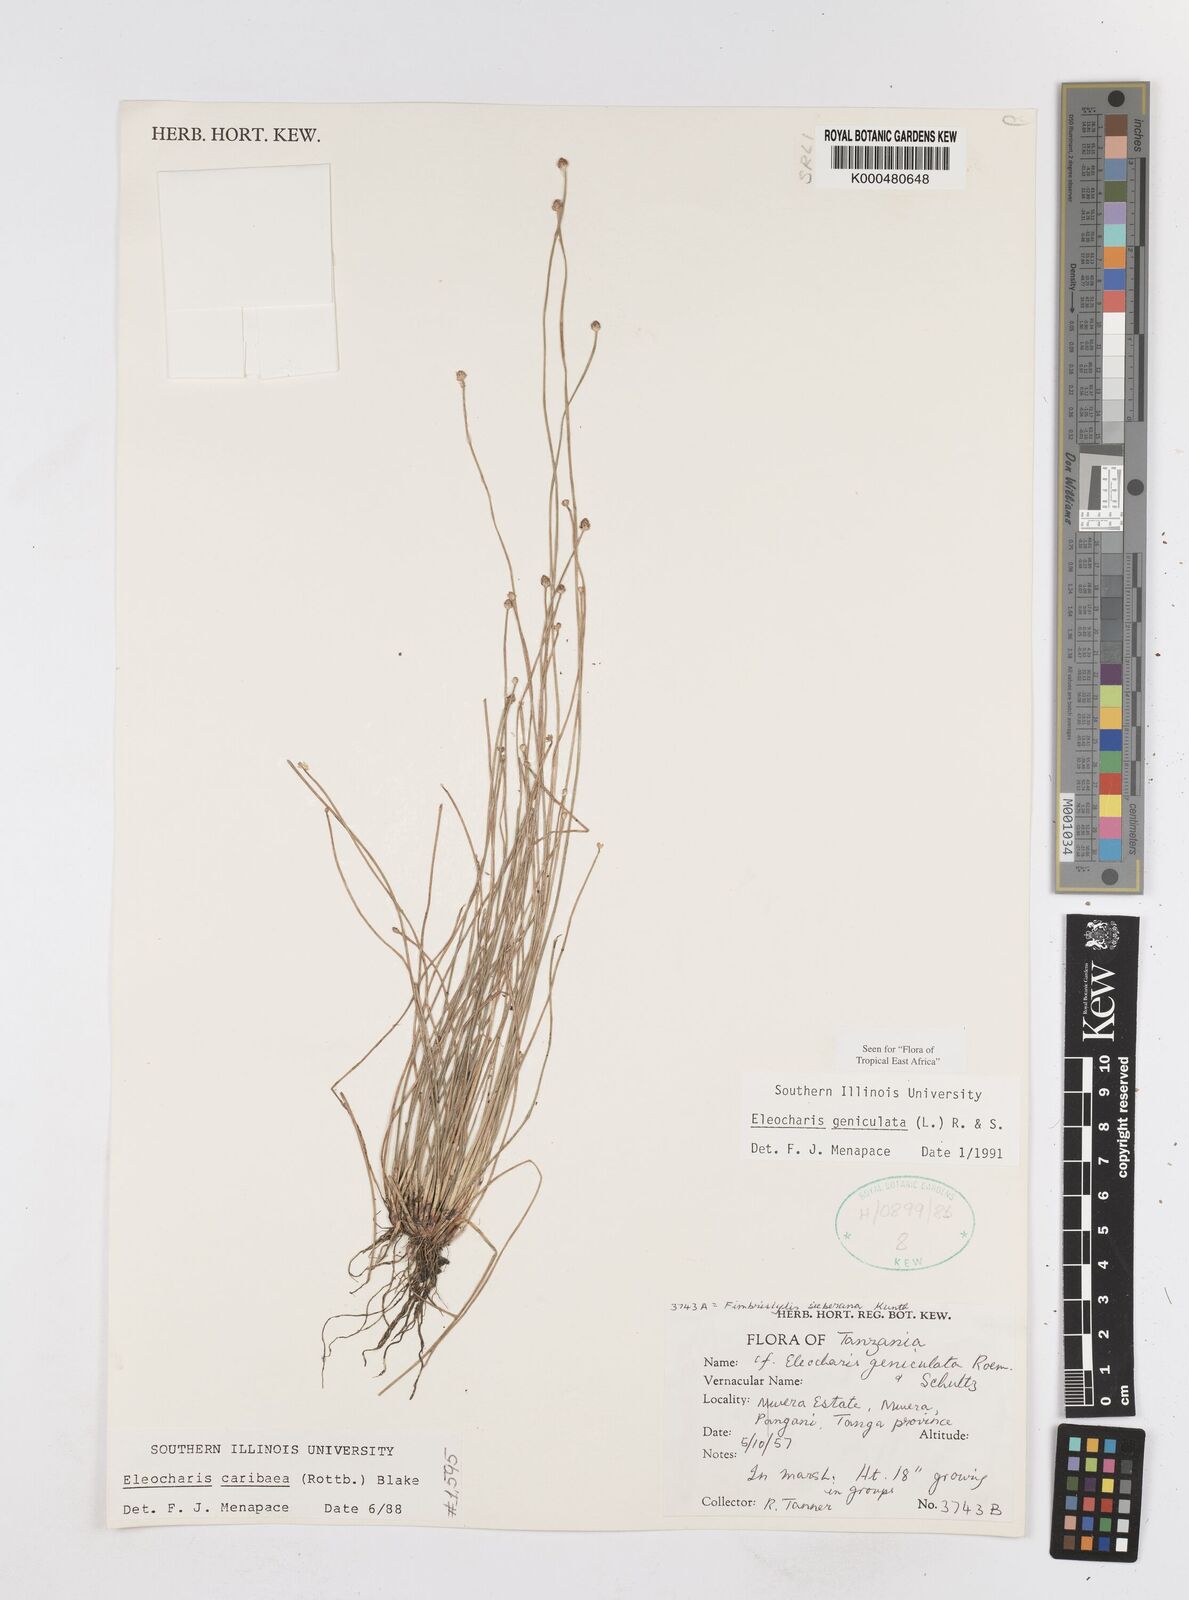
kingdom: Plantae
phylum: Tracheophyta
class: Liliopsida
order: Poales
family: Cyperaceae
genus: Eleocharis
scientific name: Eleocharis geniculata
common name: Canada spikesedge
